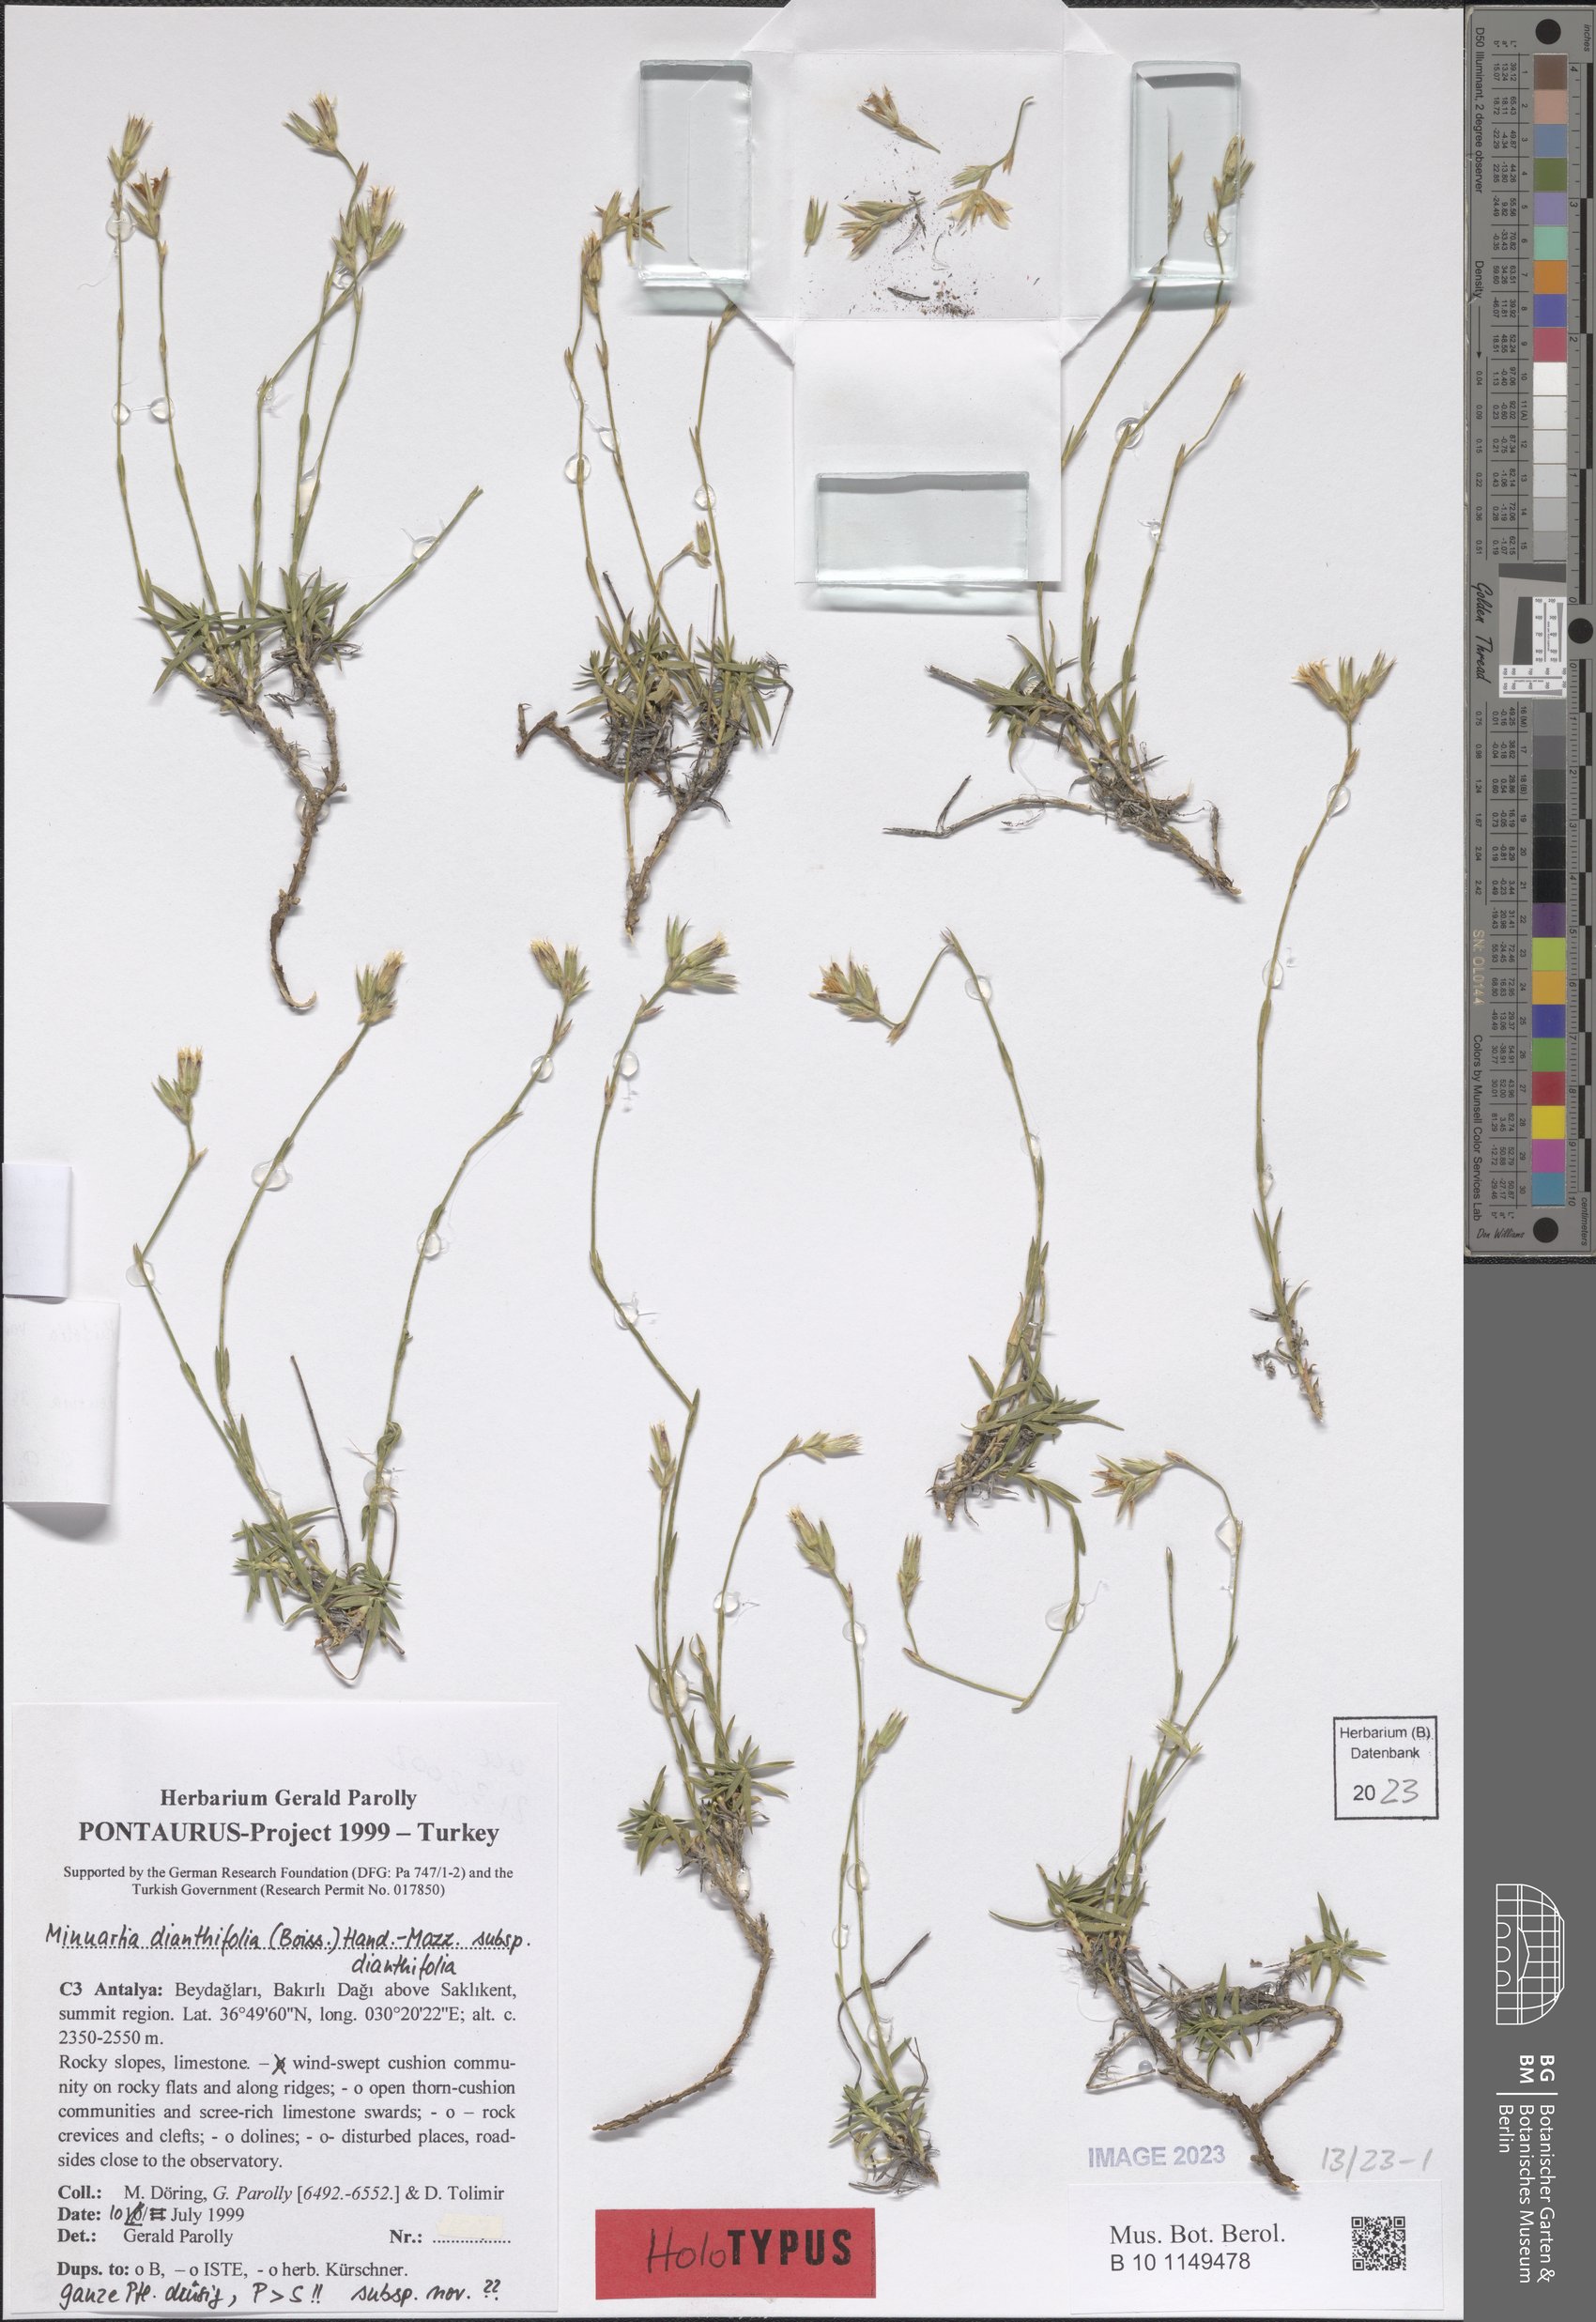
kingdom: Plantae
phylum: Tracheophyta
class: Magnoliopsida
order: Caryophyllales
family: Caryophyllaceae
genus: Minuartiella
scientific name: Minuartiella dianthifolia
